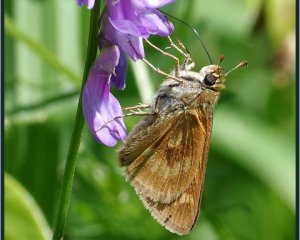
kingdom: Animalia
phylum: Arthropoda
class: Insecta
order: Lepidoptera
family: Hesperiidae
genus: Polites
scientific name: Polites
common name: Long Dash Skipper
